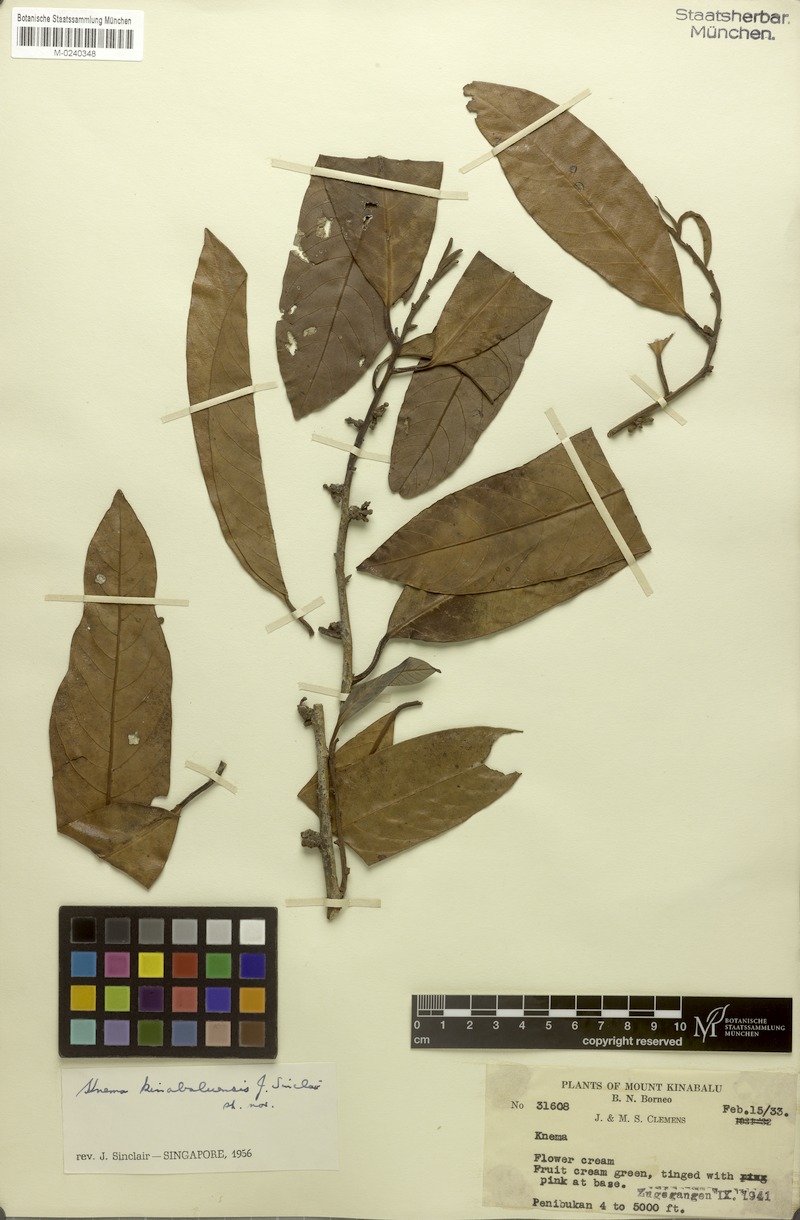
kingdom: Plantae
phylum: Tracheophyta
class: Magnoliopsida
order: Magnoliales
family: Myristicaceae
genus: Knema
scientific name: Knema kinabaluensis
